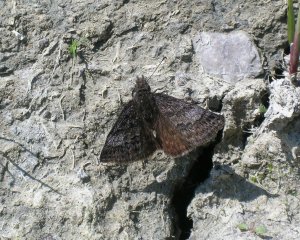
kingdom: Animalia
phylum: Arthropoda
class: Insecta
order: Lepidoptera
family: Hesperiidae
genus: Erynnis
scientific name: Erynnis icelus
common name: Dreamy Duskywing
